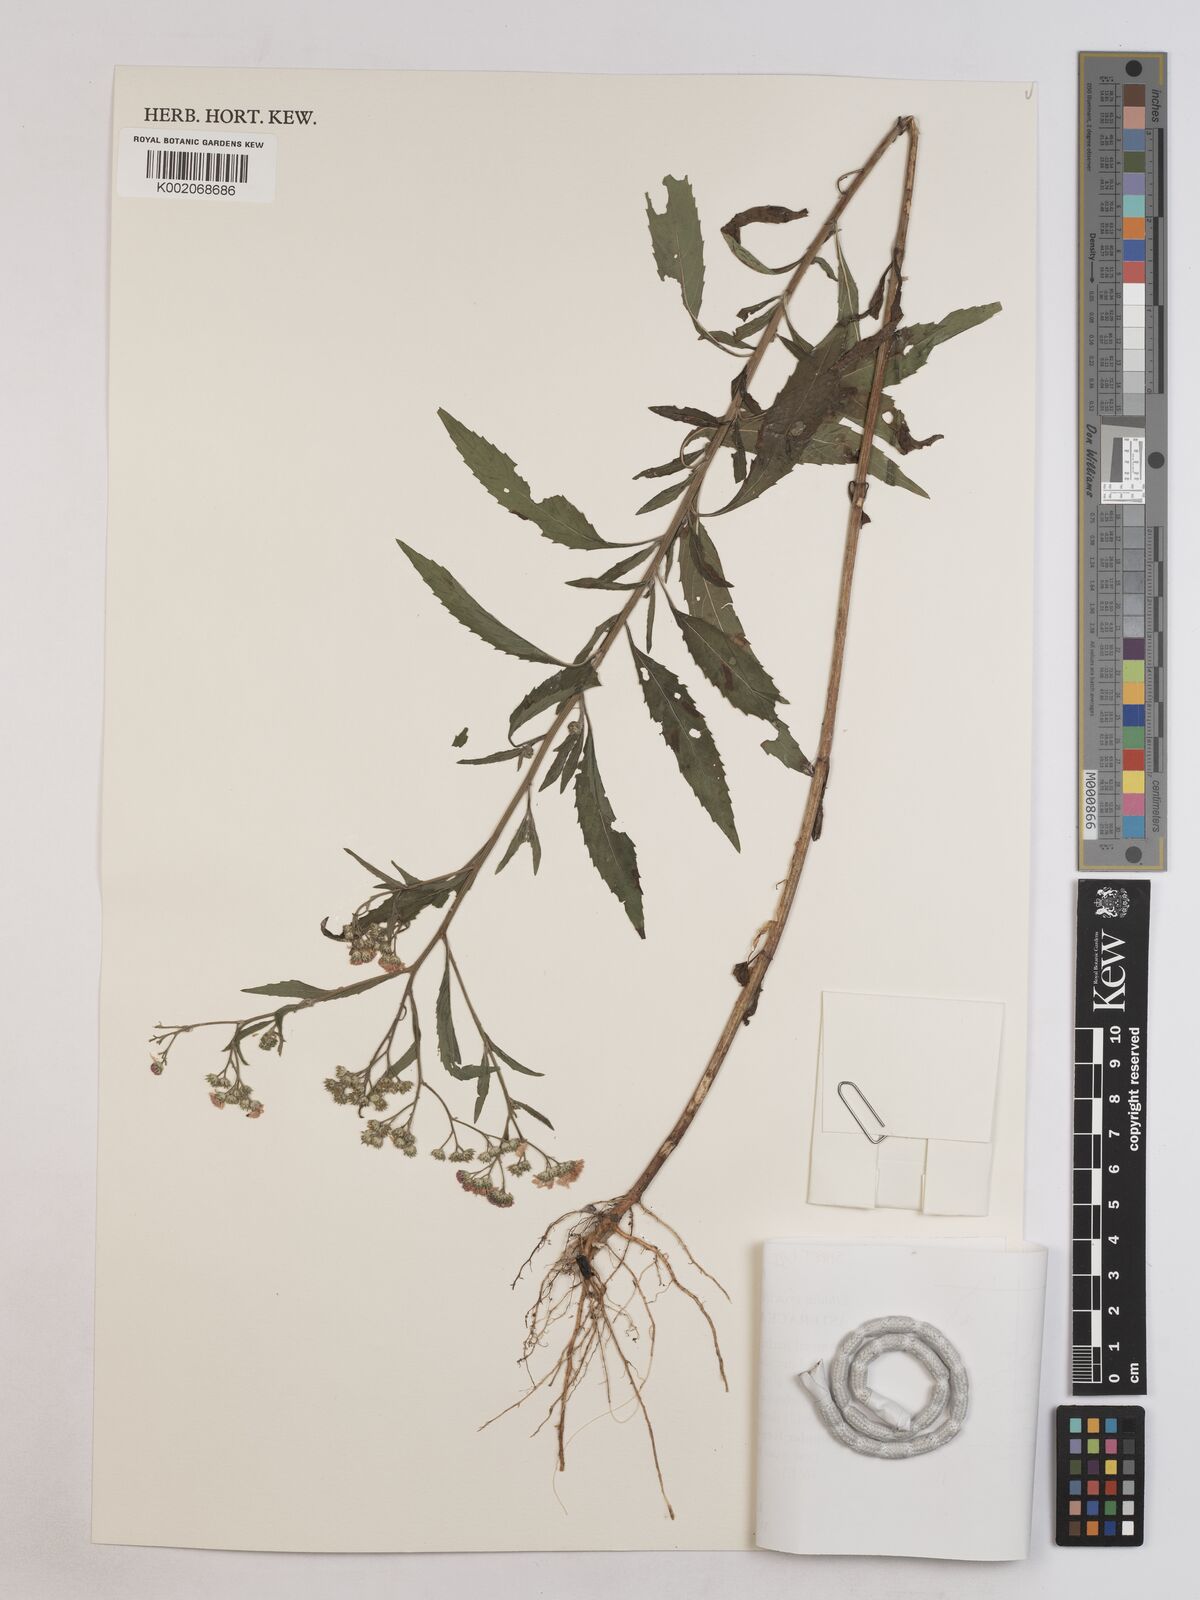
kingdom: Plantae
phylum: Tracheophyta
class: Magnoliopsida
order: Asterales
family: Asteraceae
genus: Ethulia
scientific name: Ethulia gracilis
